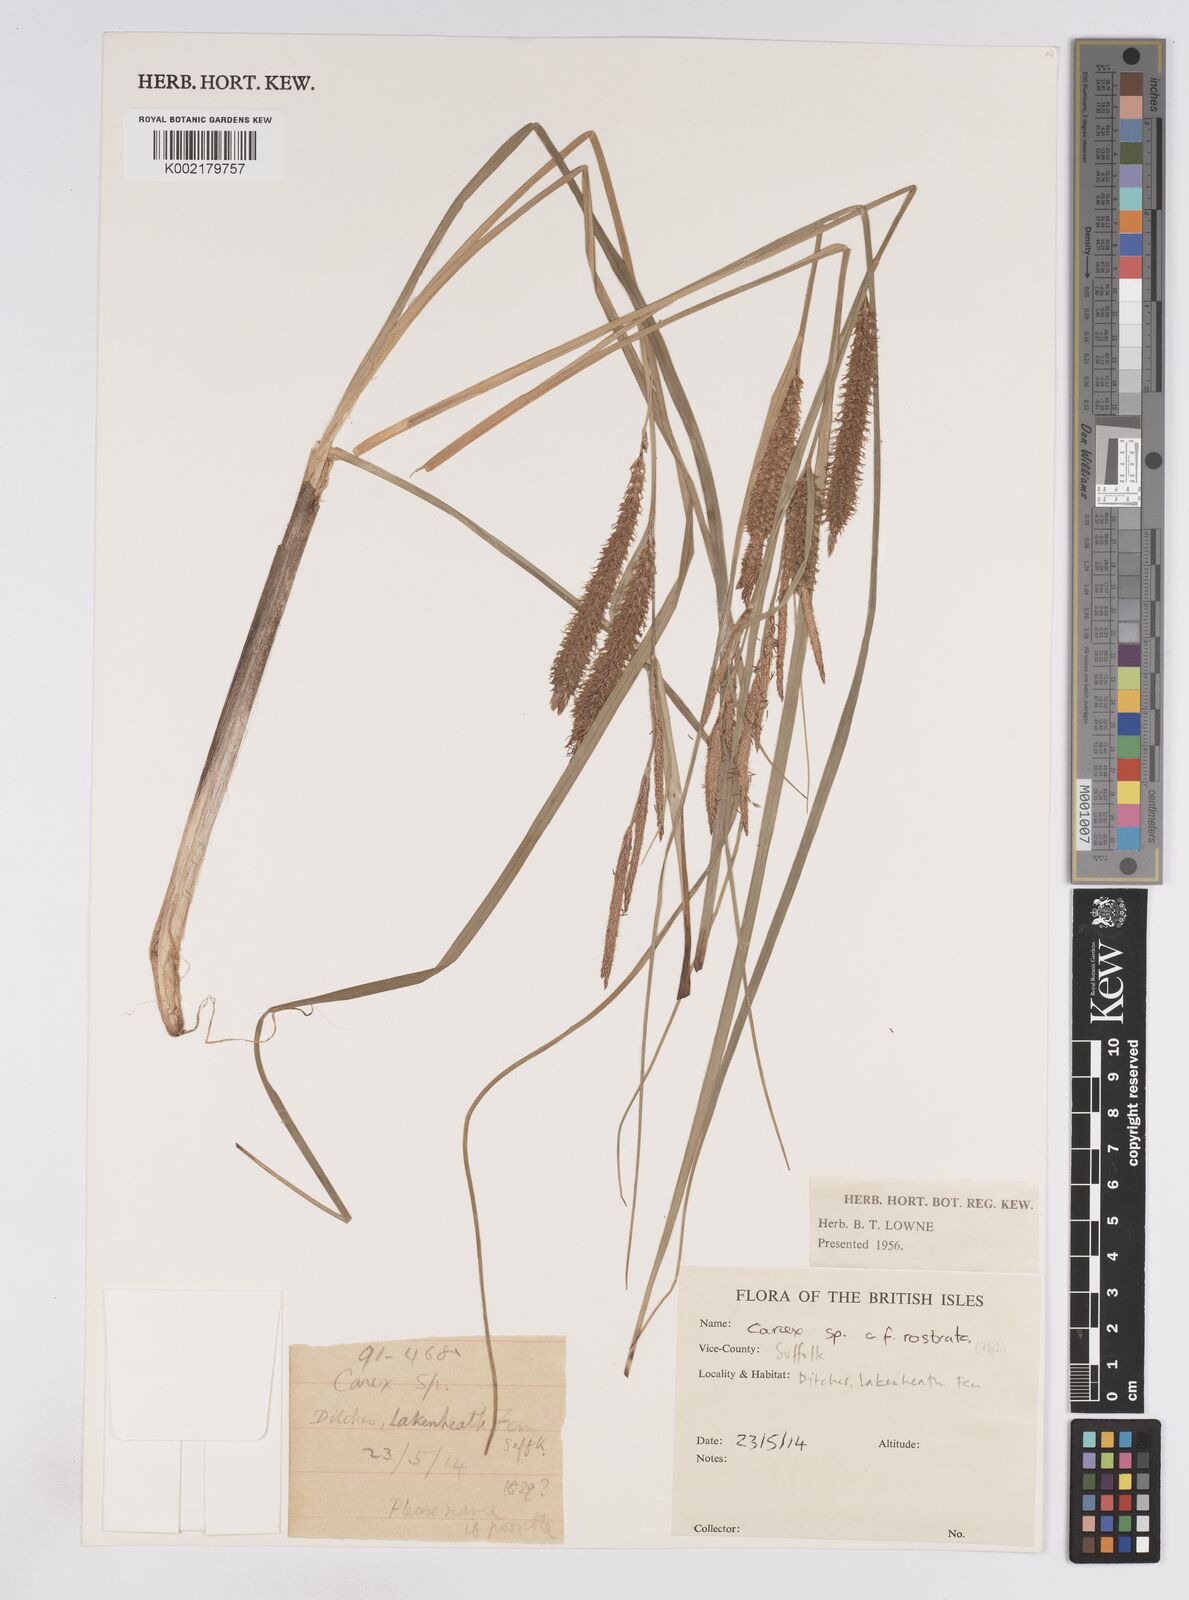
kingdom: Plantae
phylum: Tracheophyta
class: Liliopsida
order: Poales
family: Cyperaceae
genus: Carex
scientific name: Carex rostrata
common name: Bottle sedge
